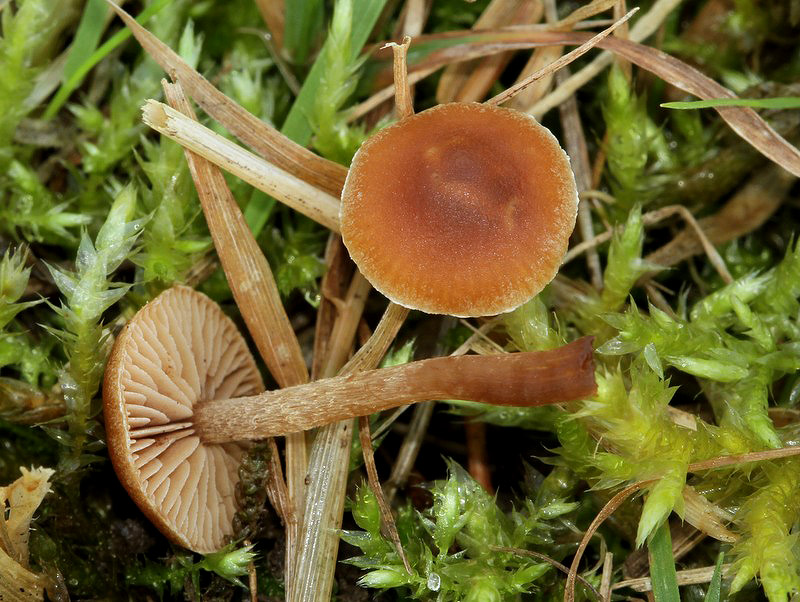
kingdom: Fungi
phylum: Basidiomycota
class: Agaricomycetes
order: Agaricales
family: Strophariaceae
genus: Deconica
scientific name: Deconica crobula
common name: træflis-stråhat
